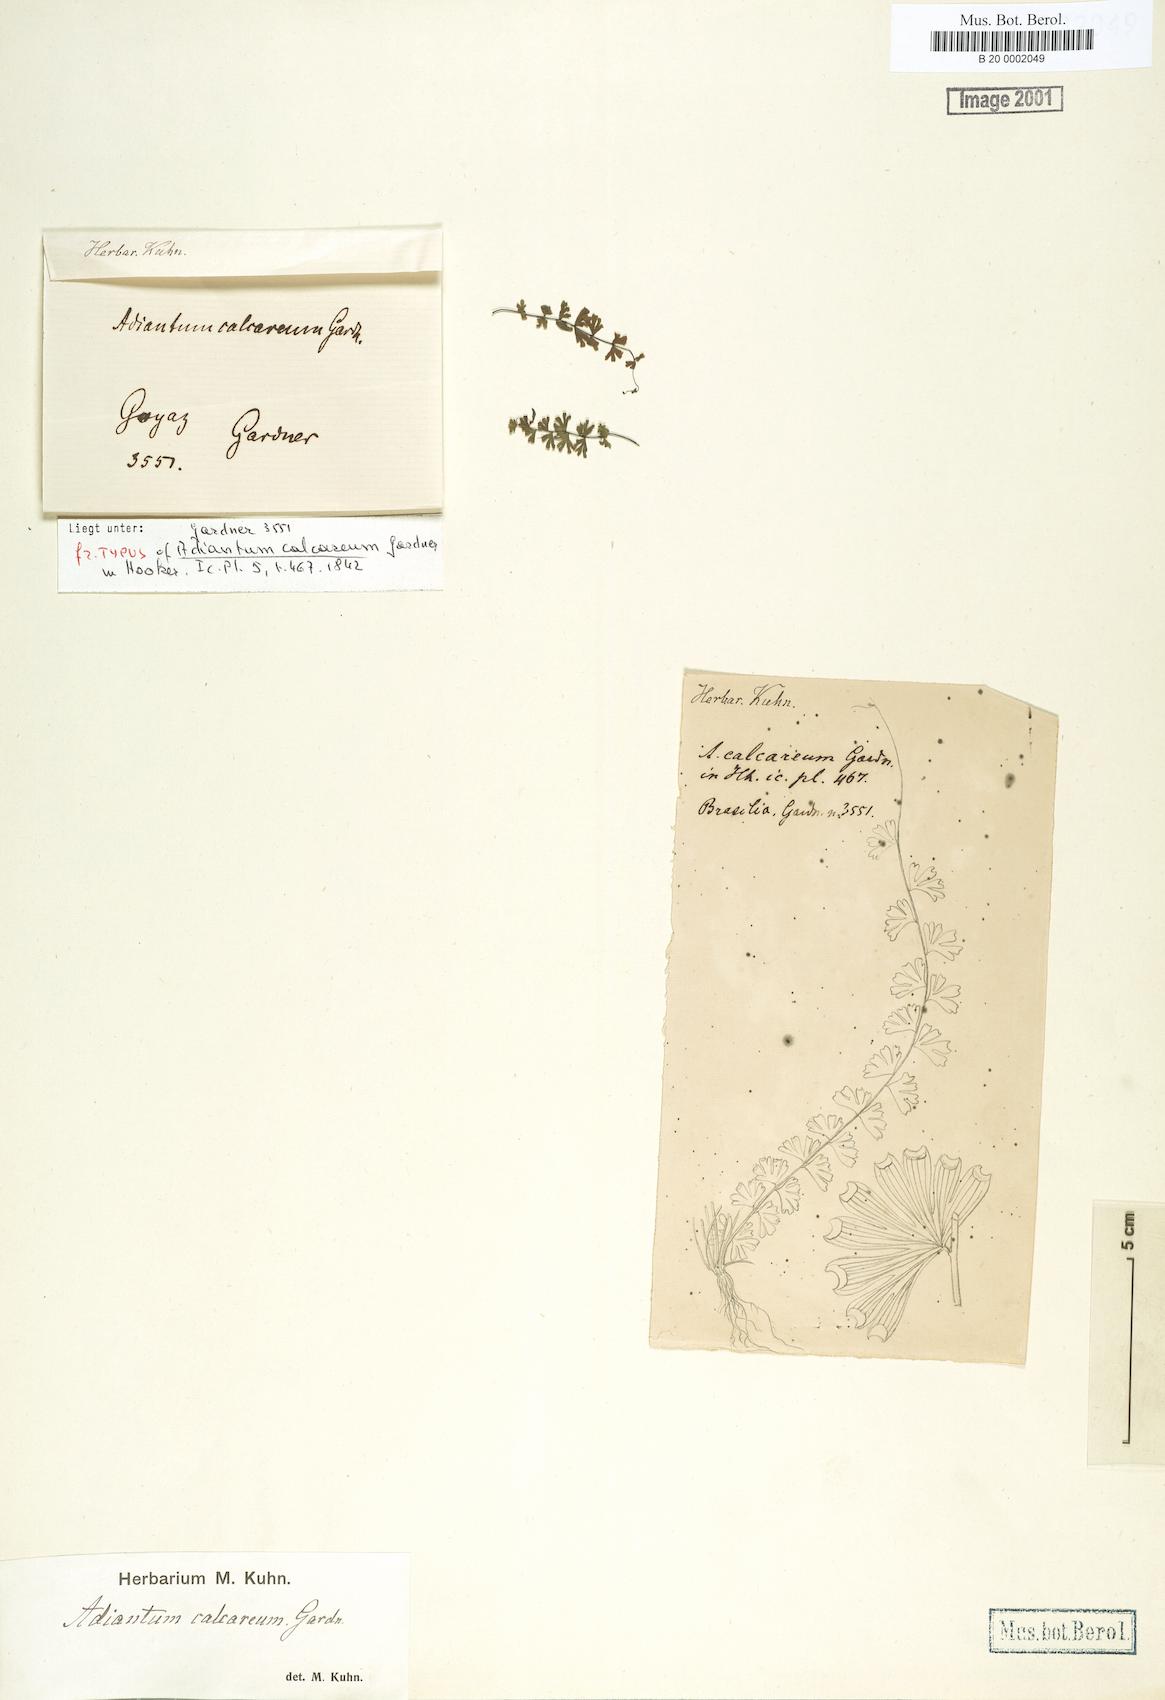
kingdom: Plantae
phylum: Tracheophyta
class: Polypodiopsida
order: Polypodiales
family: Pteridaceae
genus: Adiantum
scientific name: Adiantum calcareum
